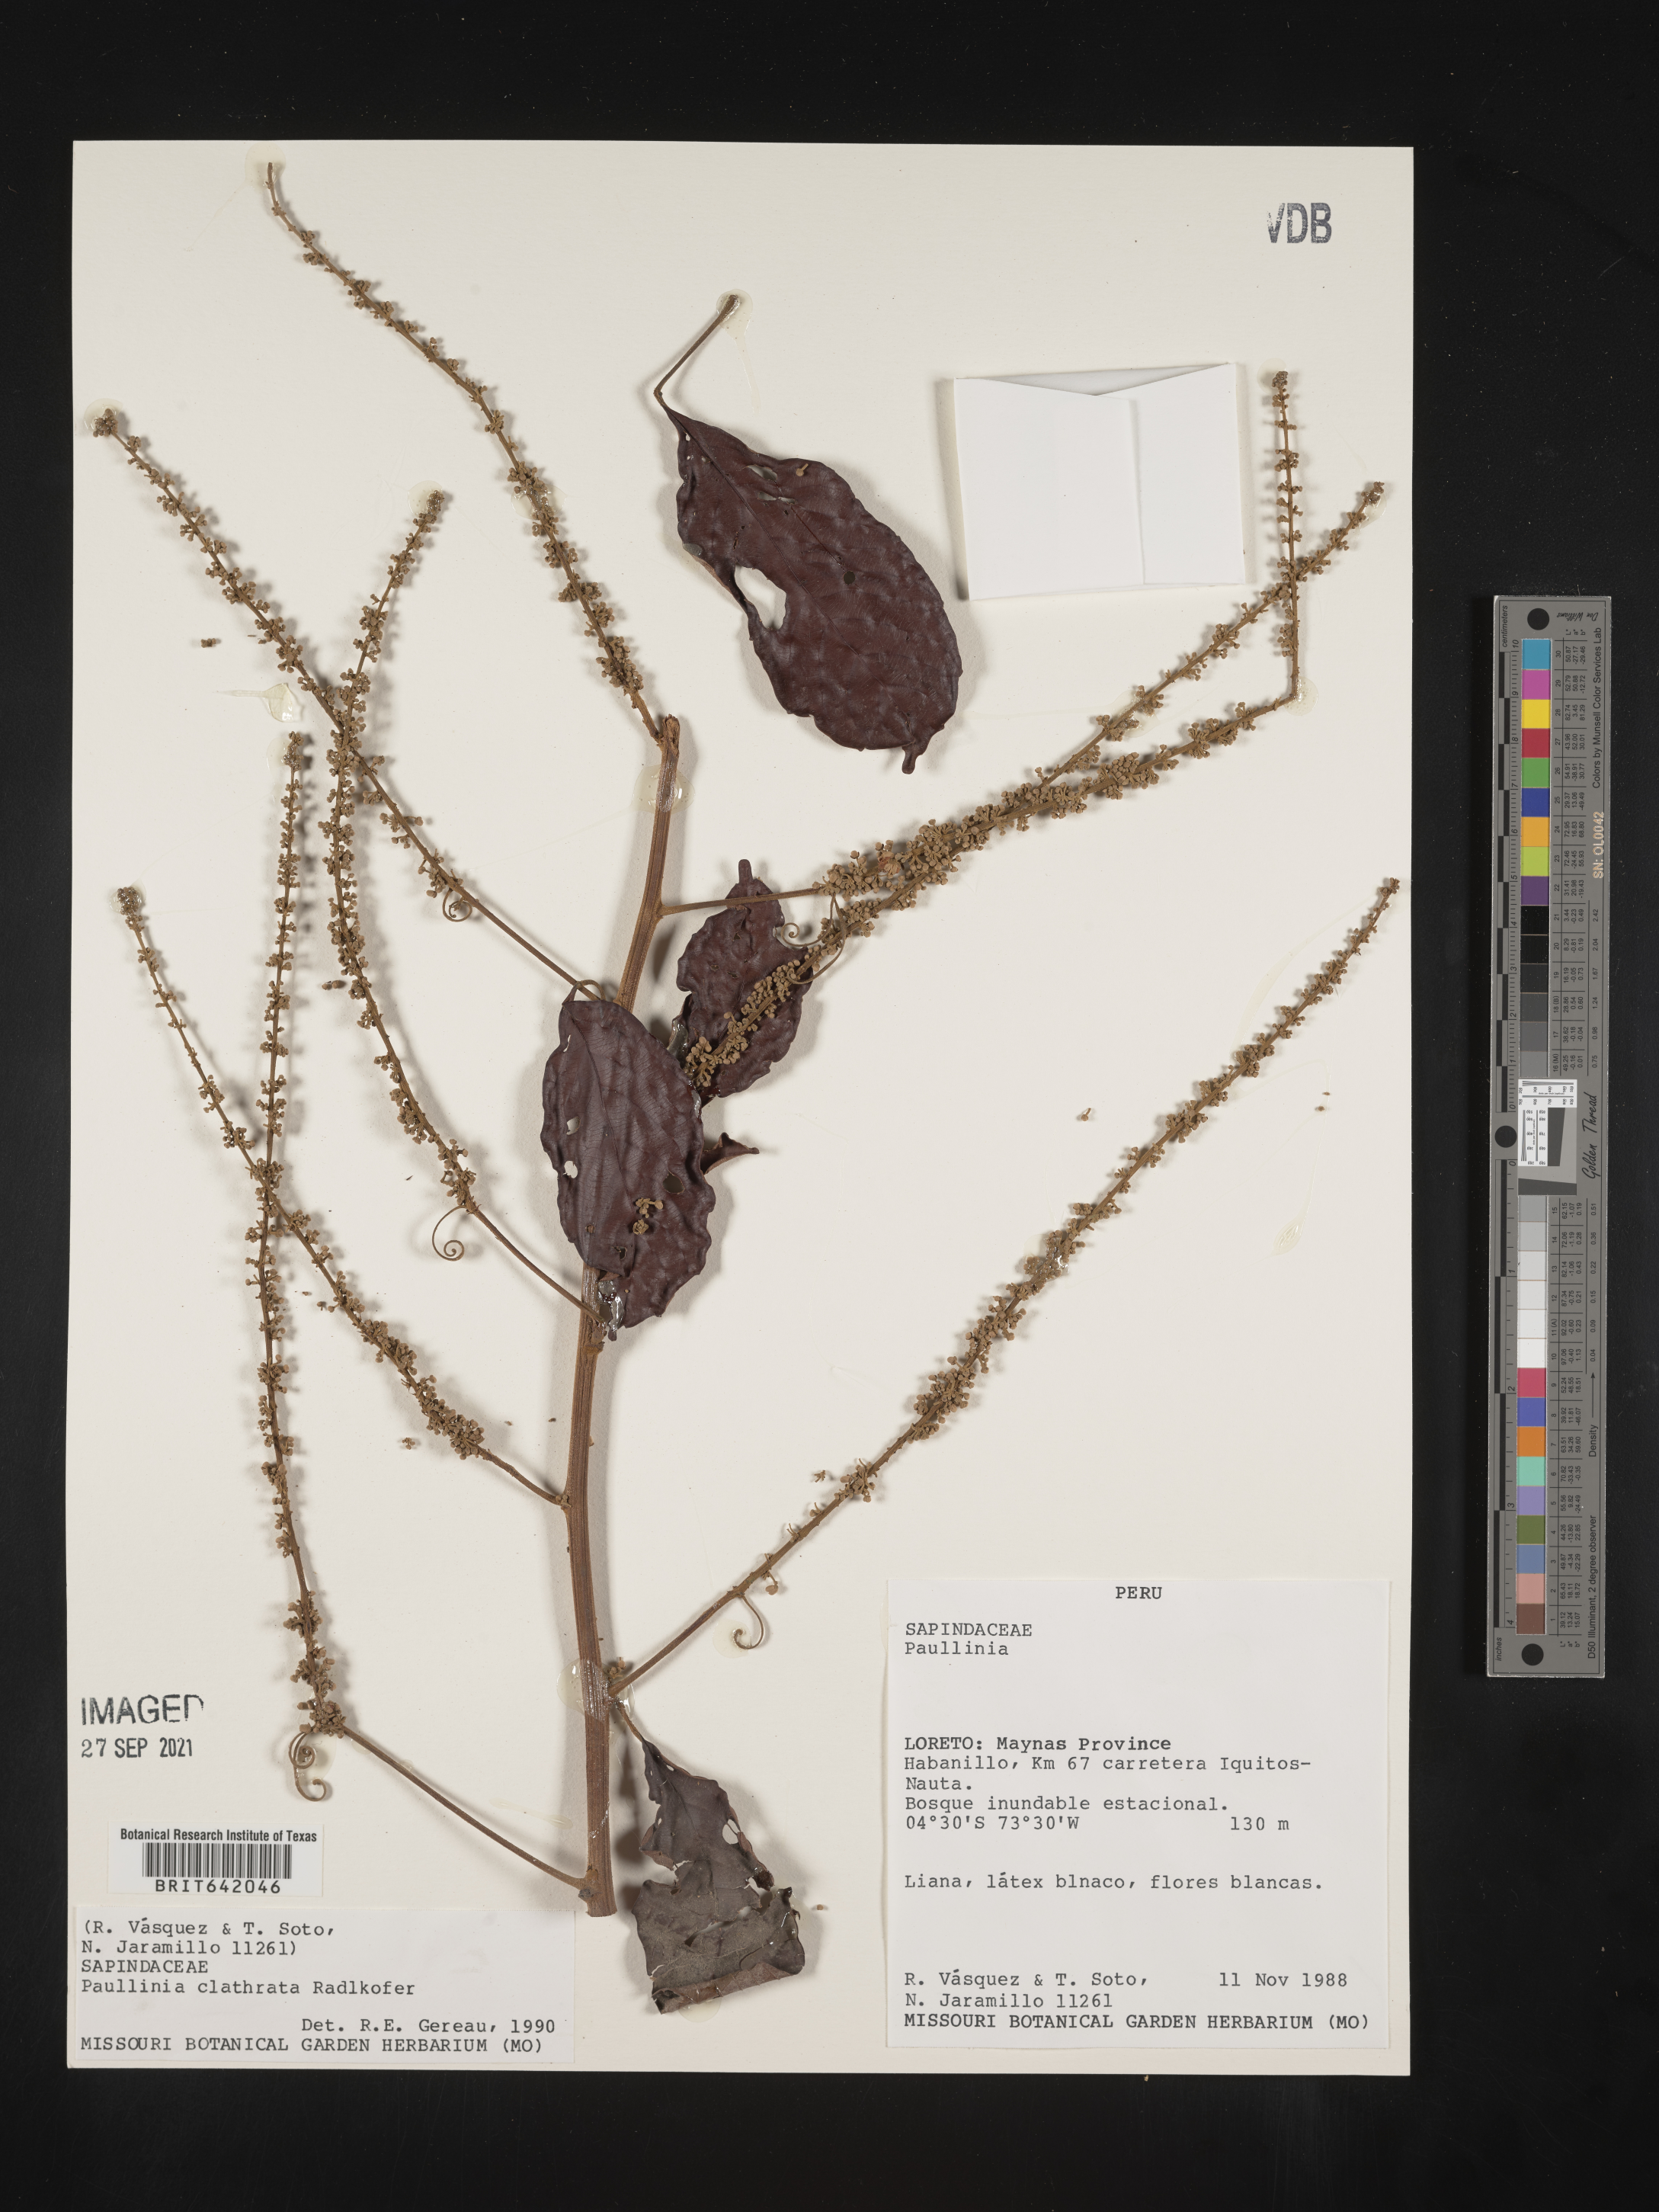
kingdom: Plantae
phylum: Tracheophyta
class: Magnoliopsida
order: Sapindales
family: Sapindaceae
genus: Paullinia
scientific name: Paullinia
